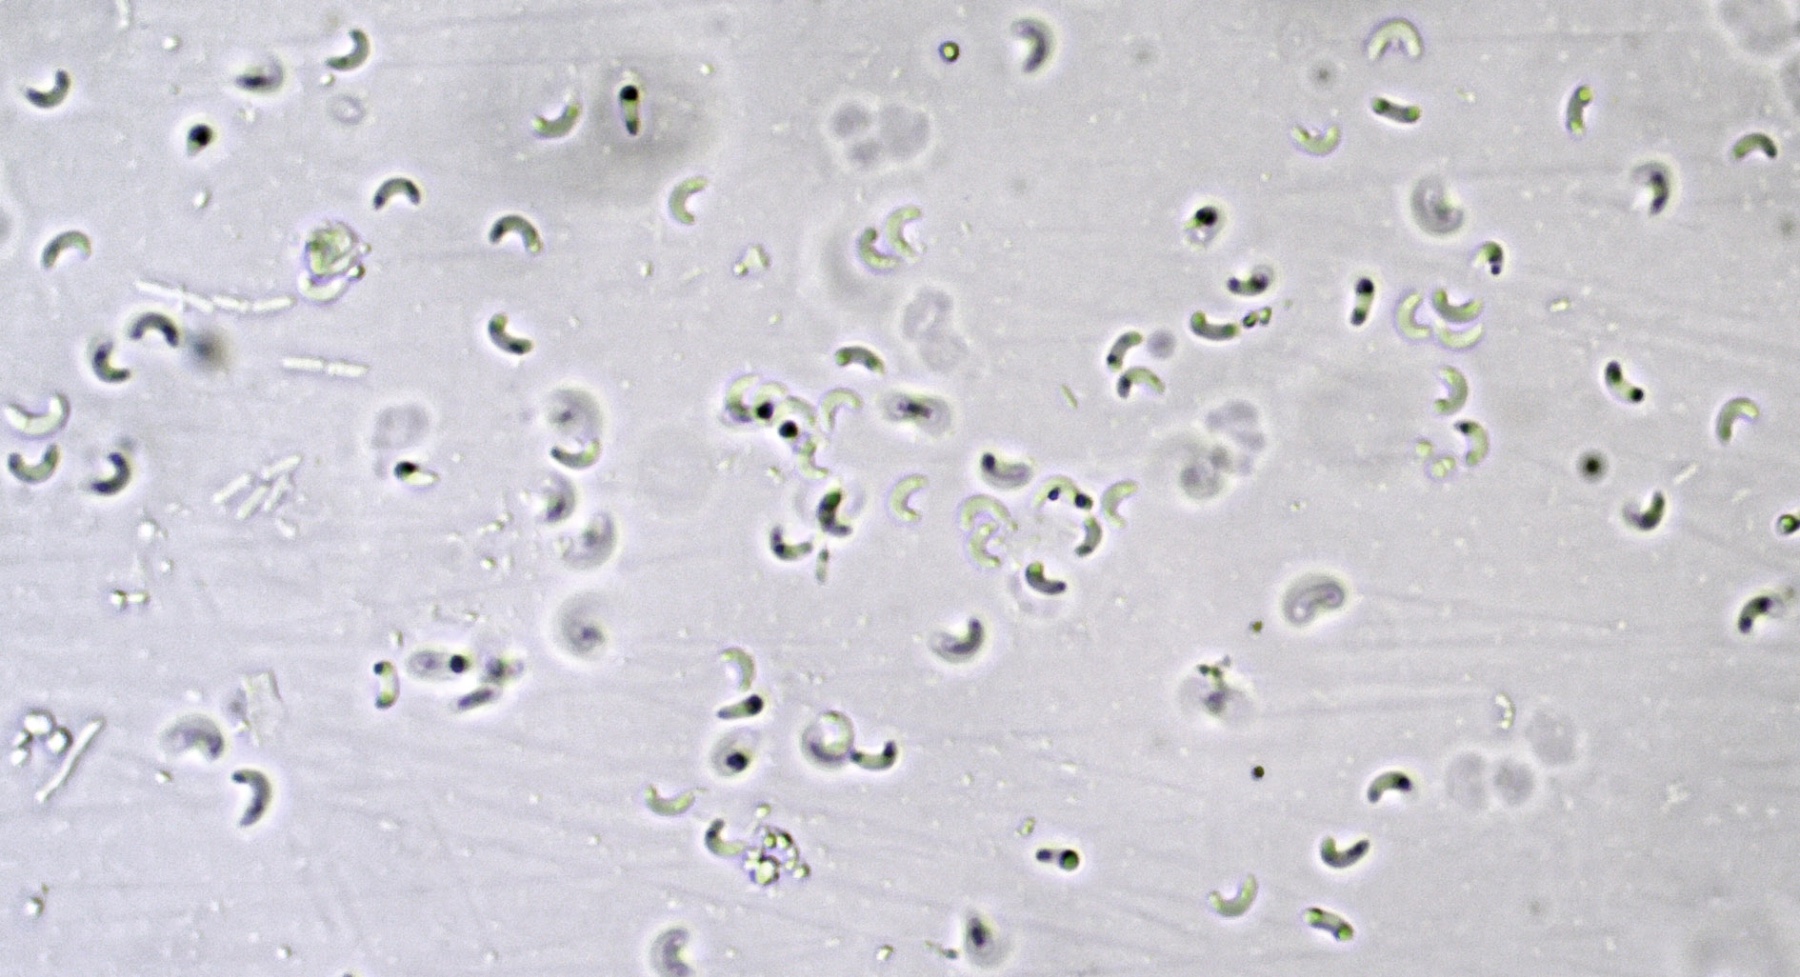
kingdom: Fungi
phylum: Basidiomycota
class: Agaricomycetes
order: Polyporales
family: Incrustoporiaceae
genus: Skeletocutis
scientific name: Skeletocutis carneogrisea
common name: rødgrå krystalporesvamp
